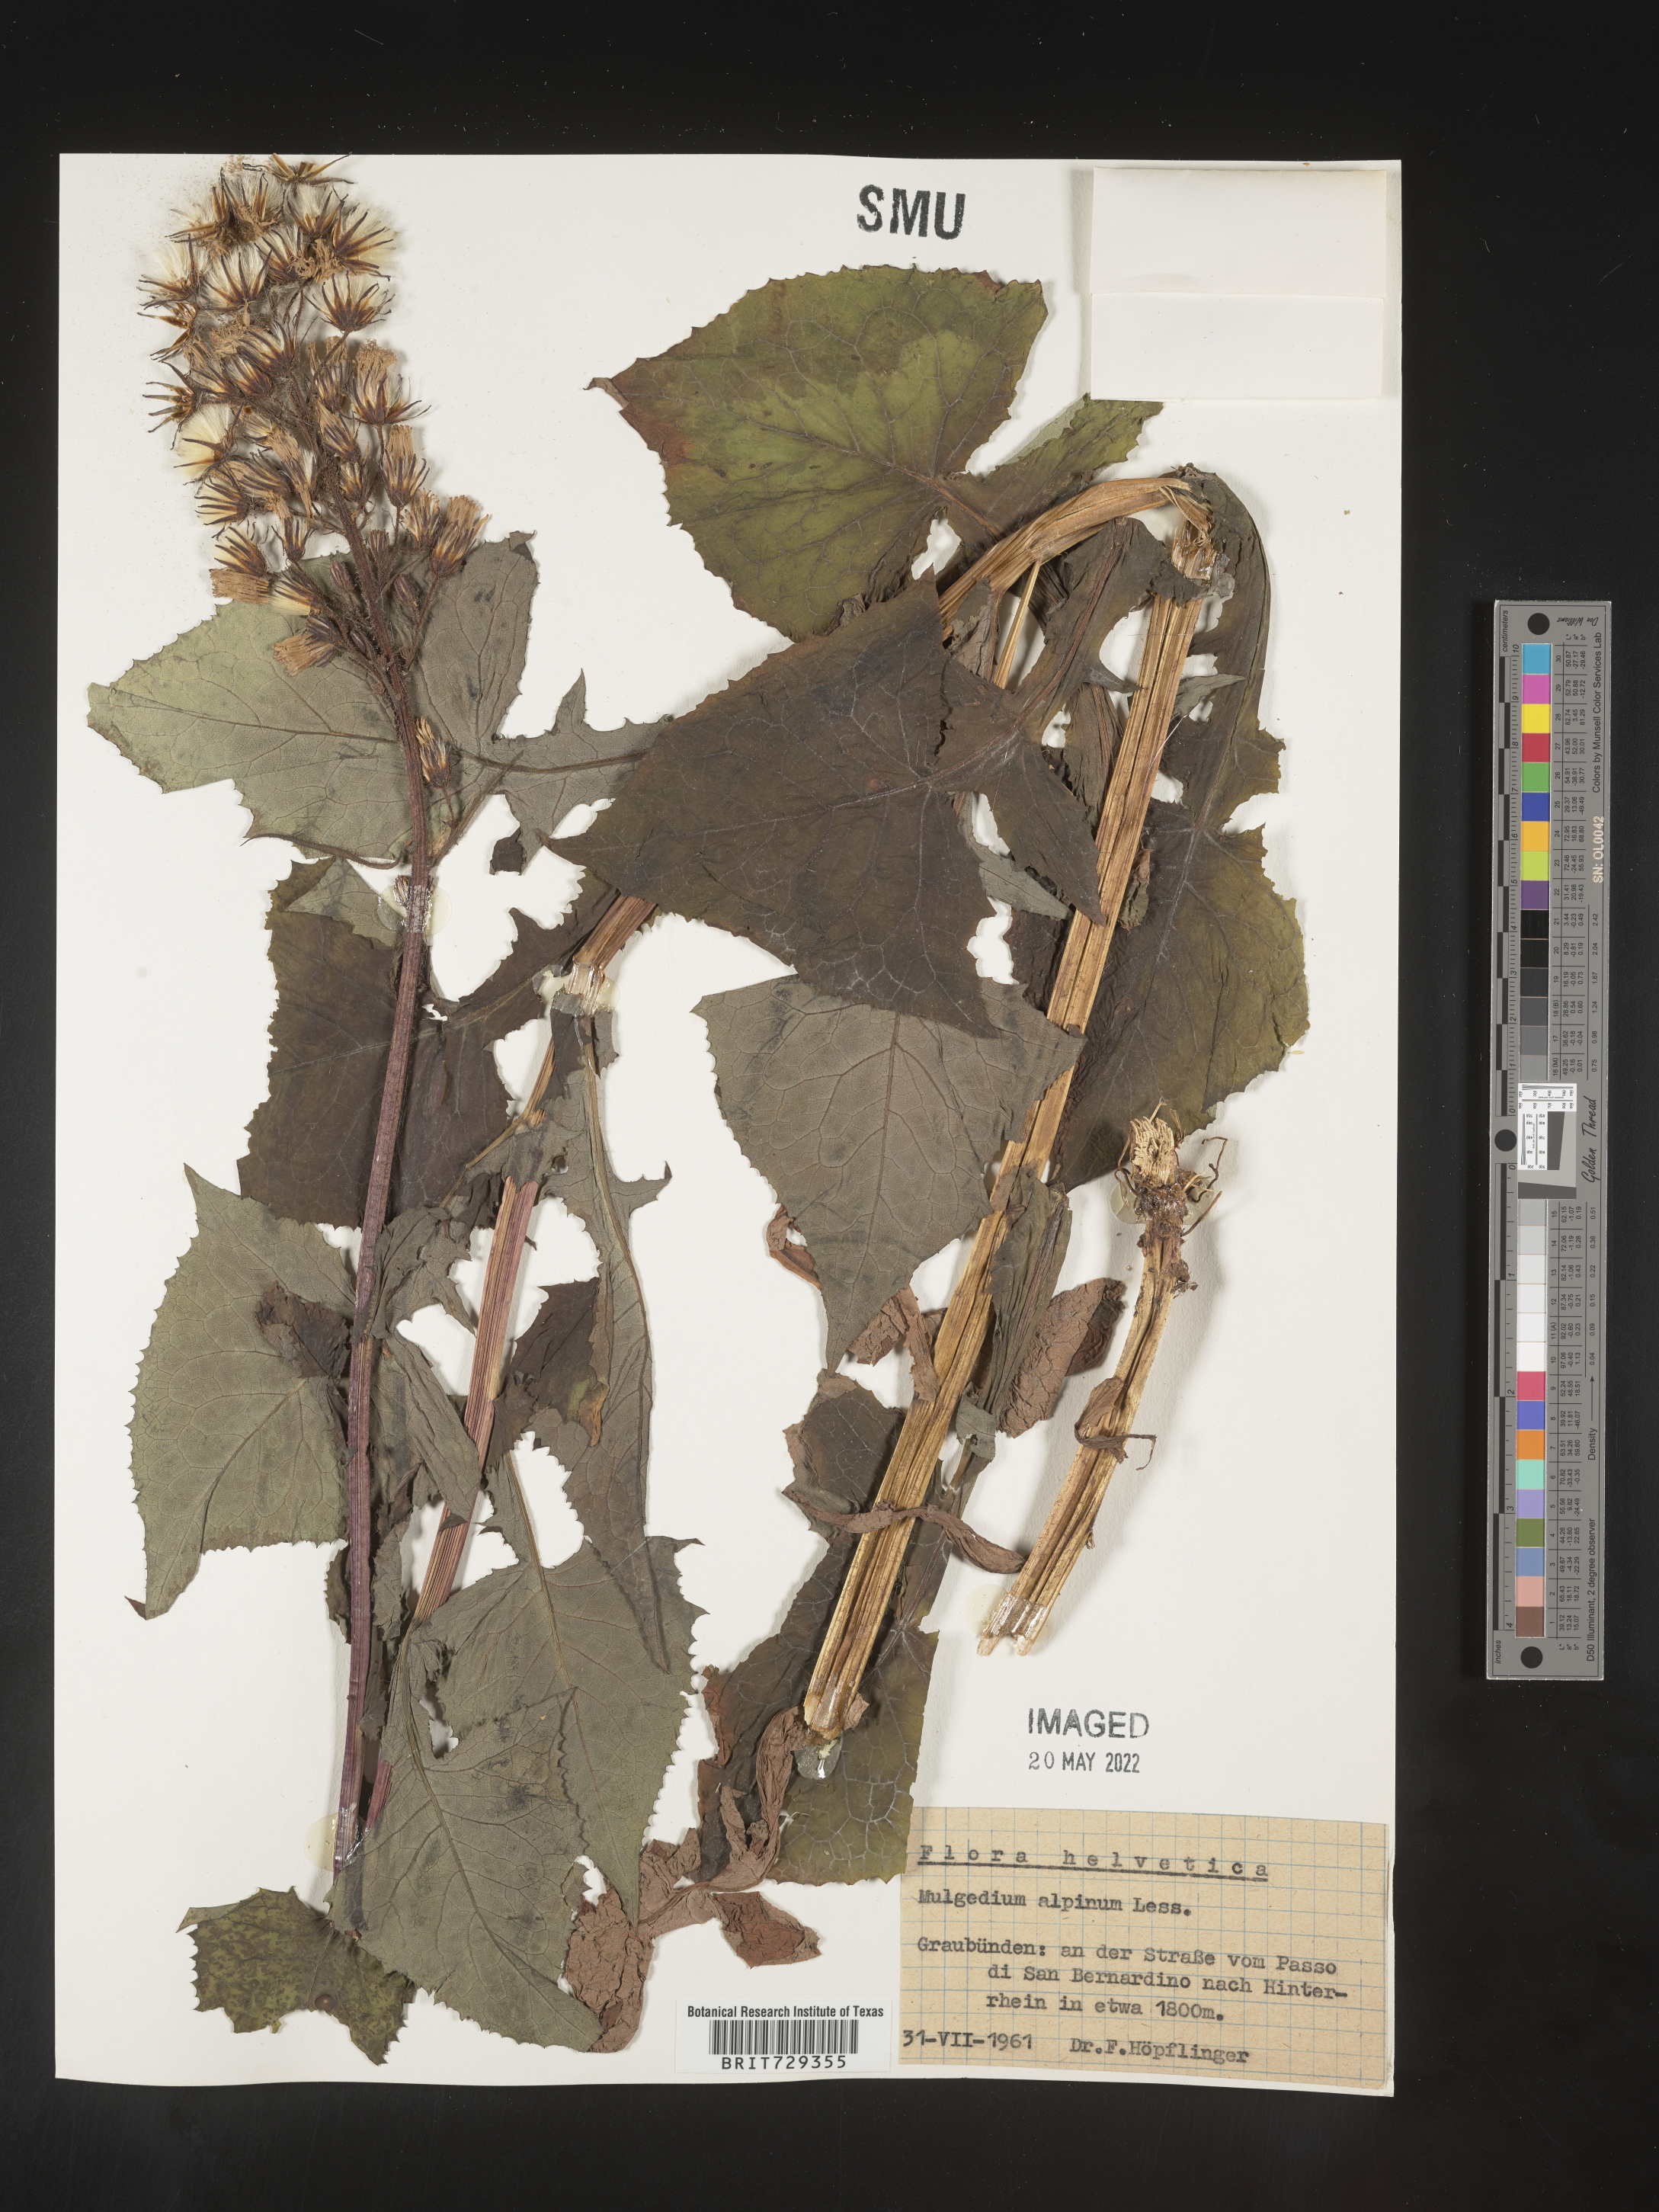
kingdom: Plantae
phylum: Tracheophyta
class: Magnoliopsida
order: Asterales
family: Asteraceae
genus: Lactuca
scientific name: Lactuca
